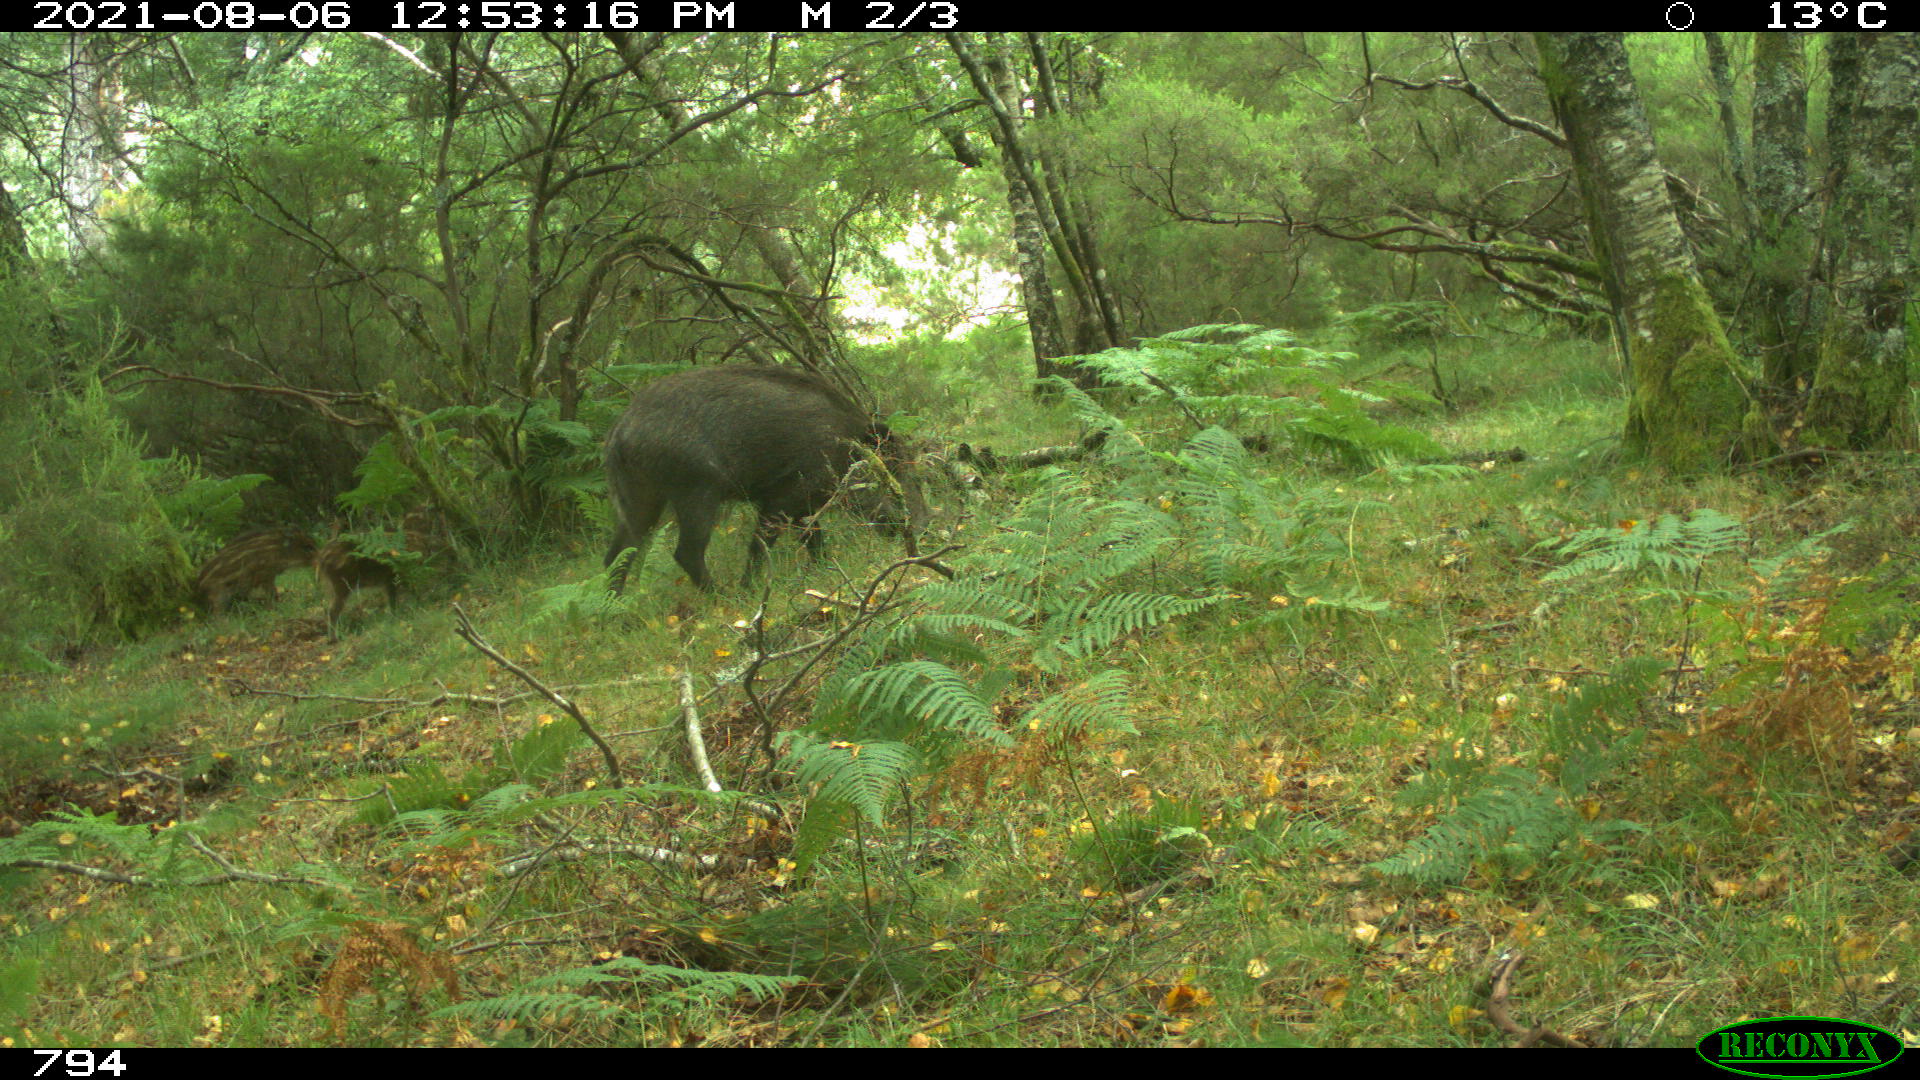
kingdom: Animalia
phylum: Chordata
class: Mammalia
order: Artiodactyla
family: Suidae
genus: Sus
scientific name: Sus scrofa
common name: Wild boar
